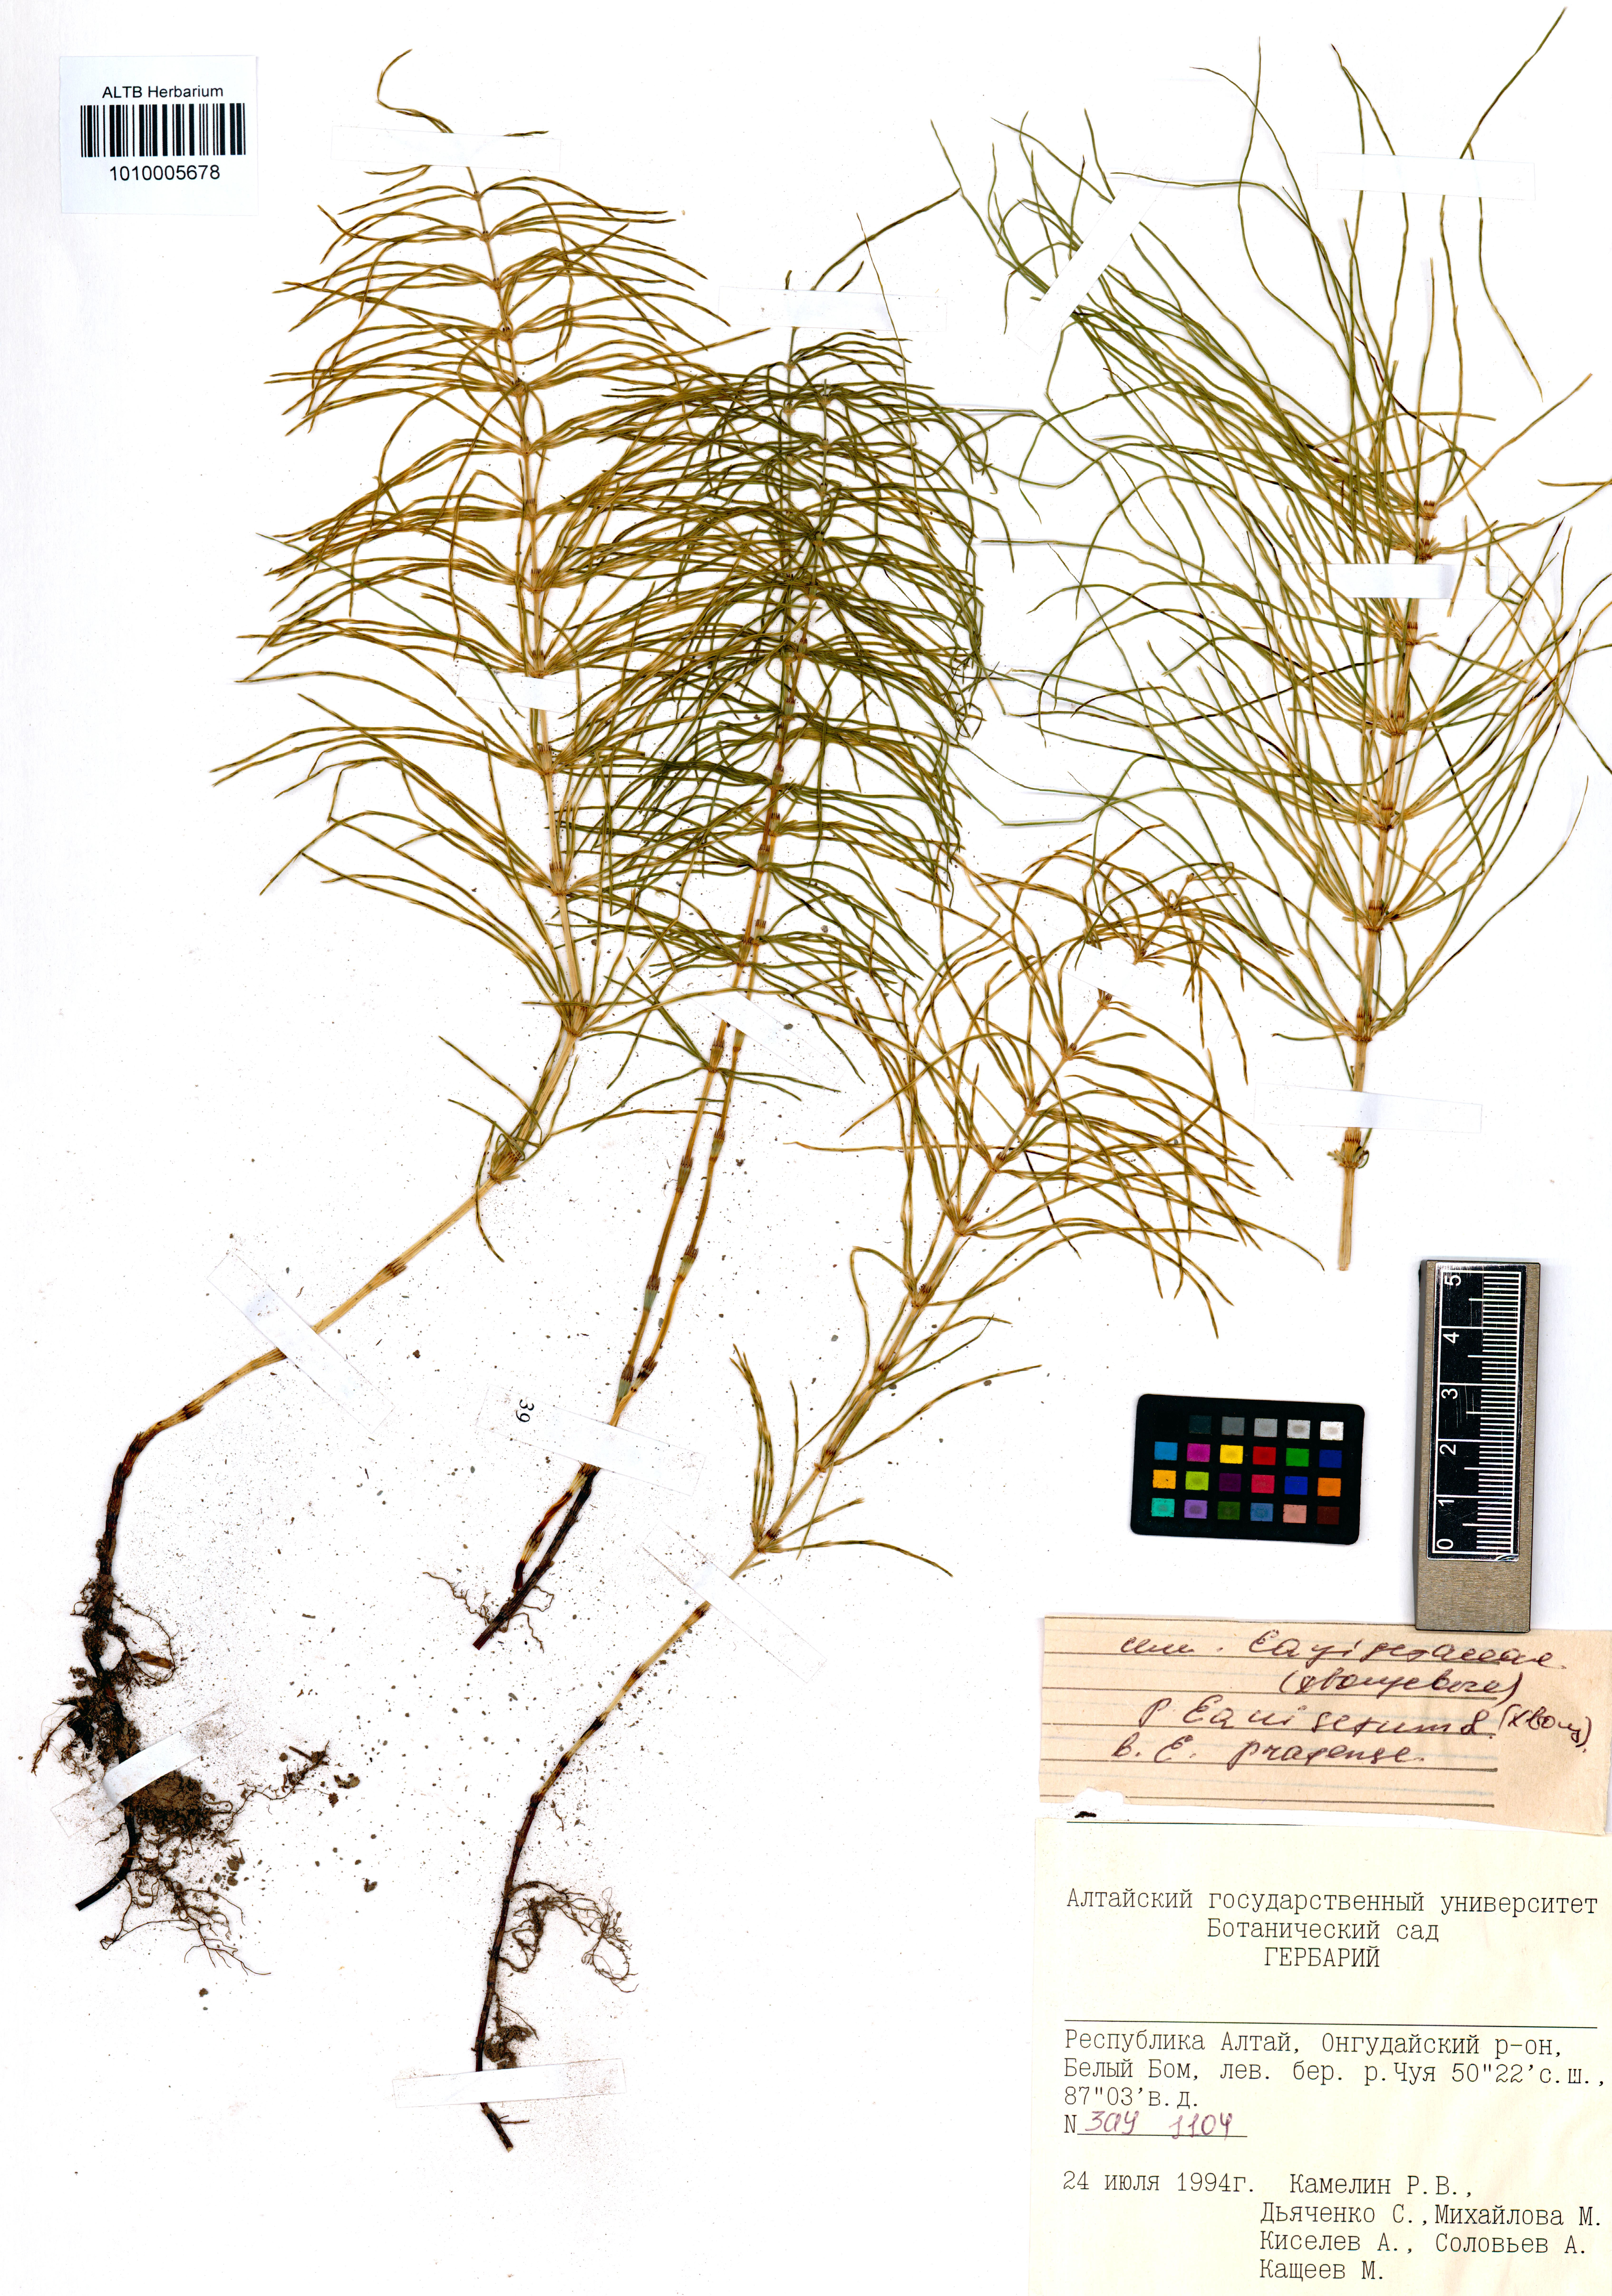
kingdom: Plantae
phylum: Tracheophyta
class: Polypodiopsida
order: Equisetales
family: Equisetaceae
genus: Equisetum
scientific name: Equisetum pratense
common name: Meadow horsetail
